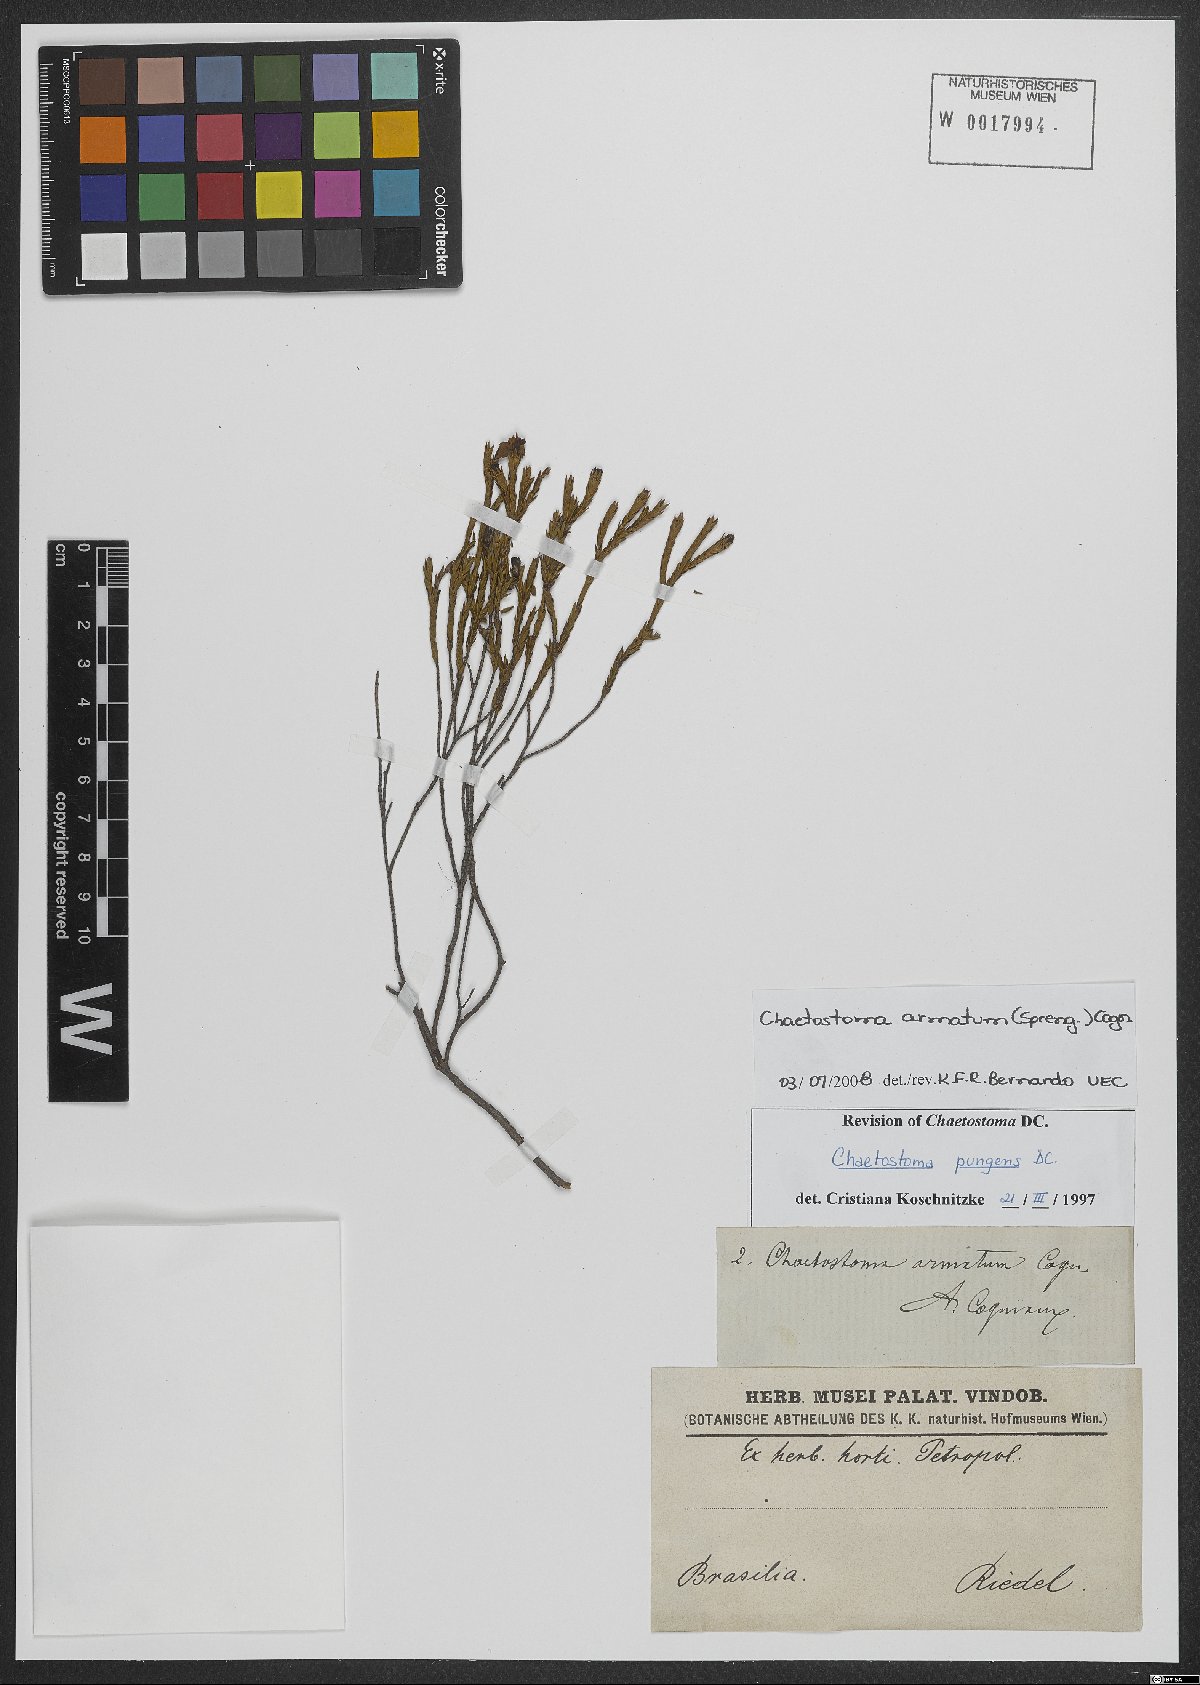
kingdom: Plantae
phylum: Tracheophyta
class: Magnoliopsida
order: Myrtales
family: Melastomataceae
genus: Microlicia
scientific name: Microlicia armata
